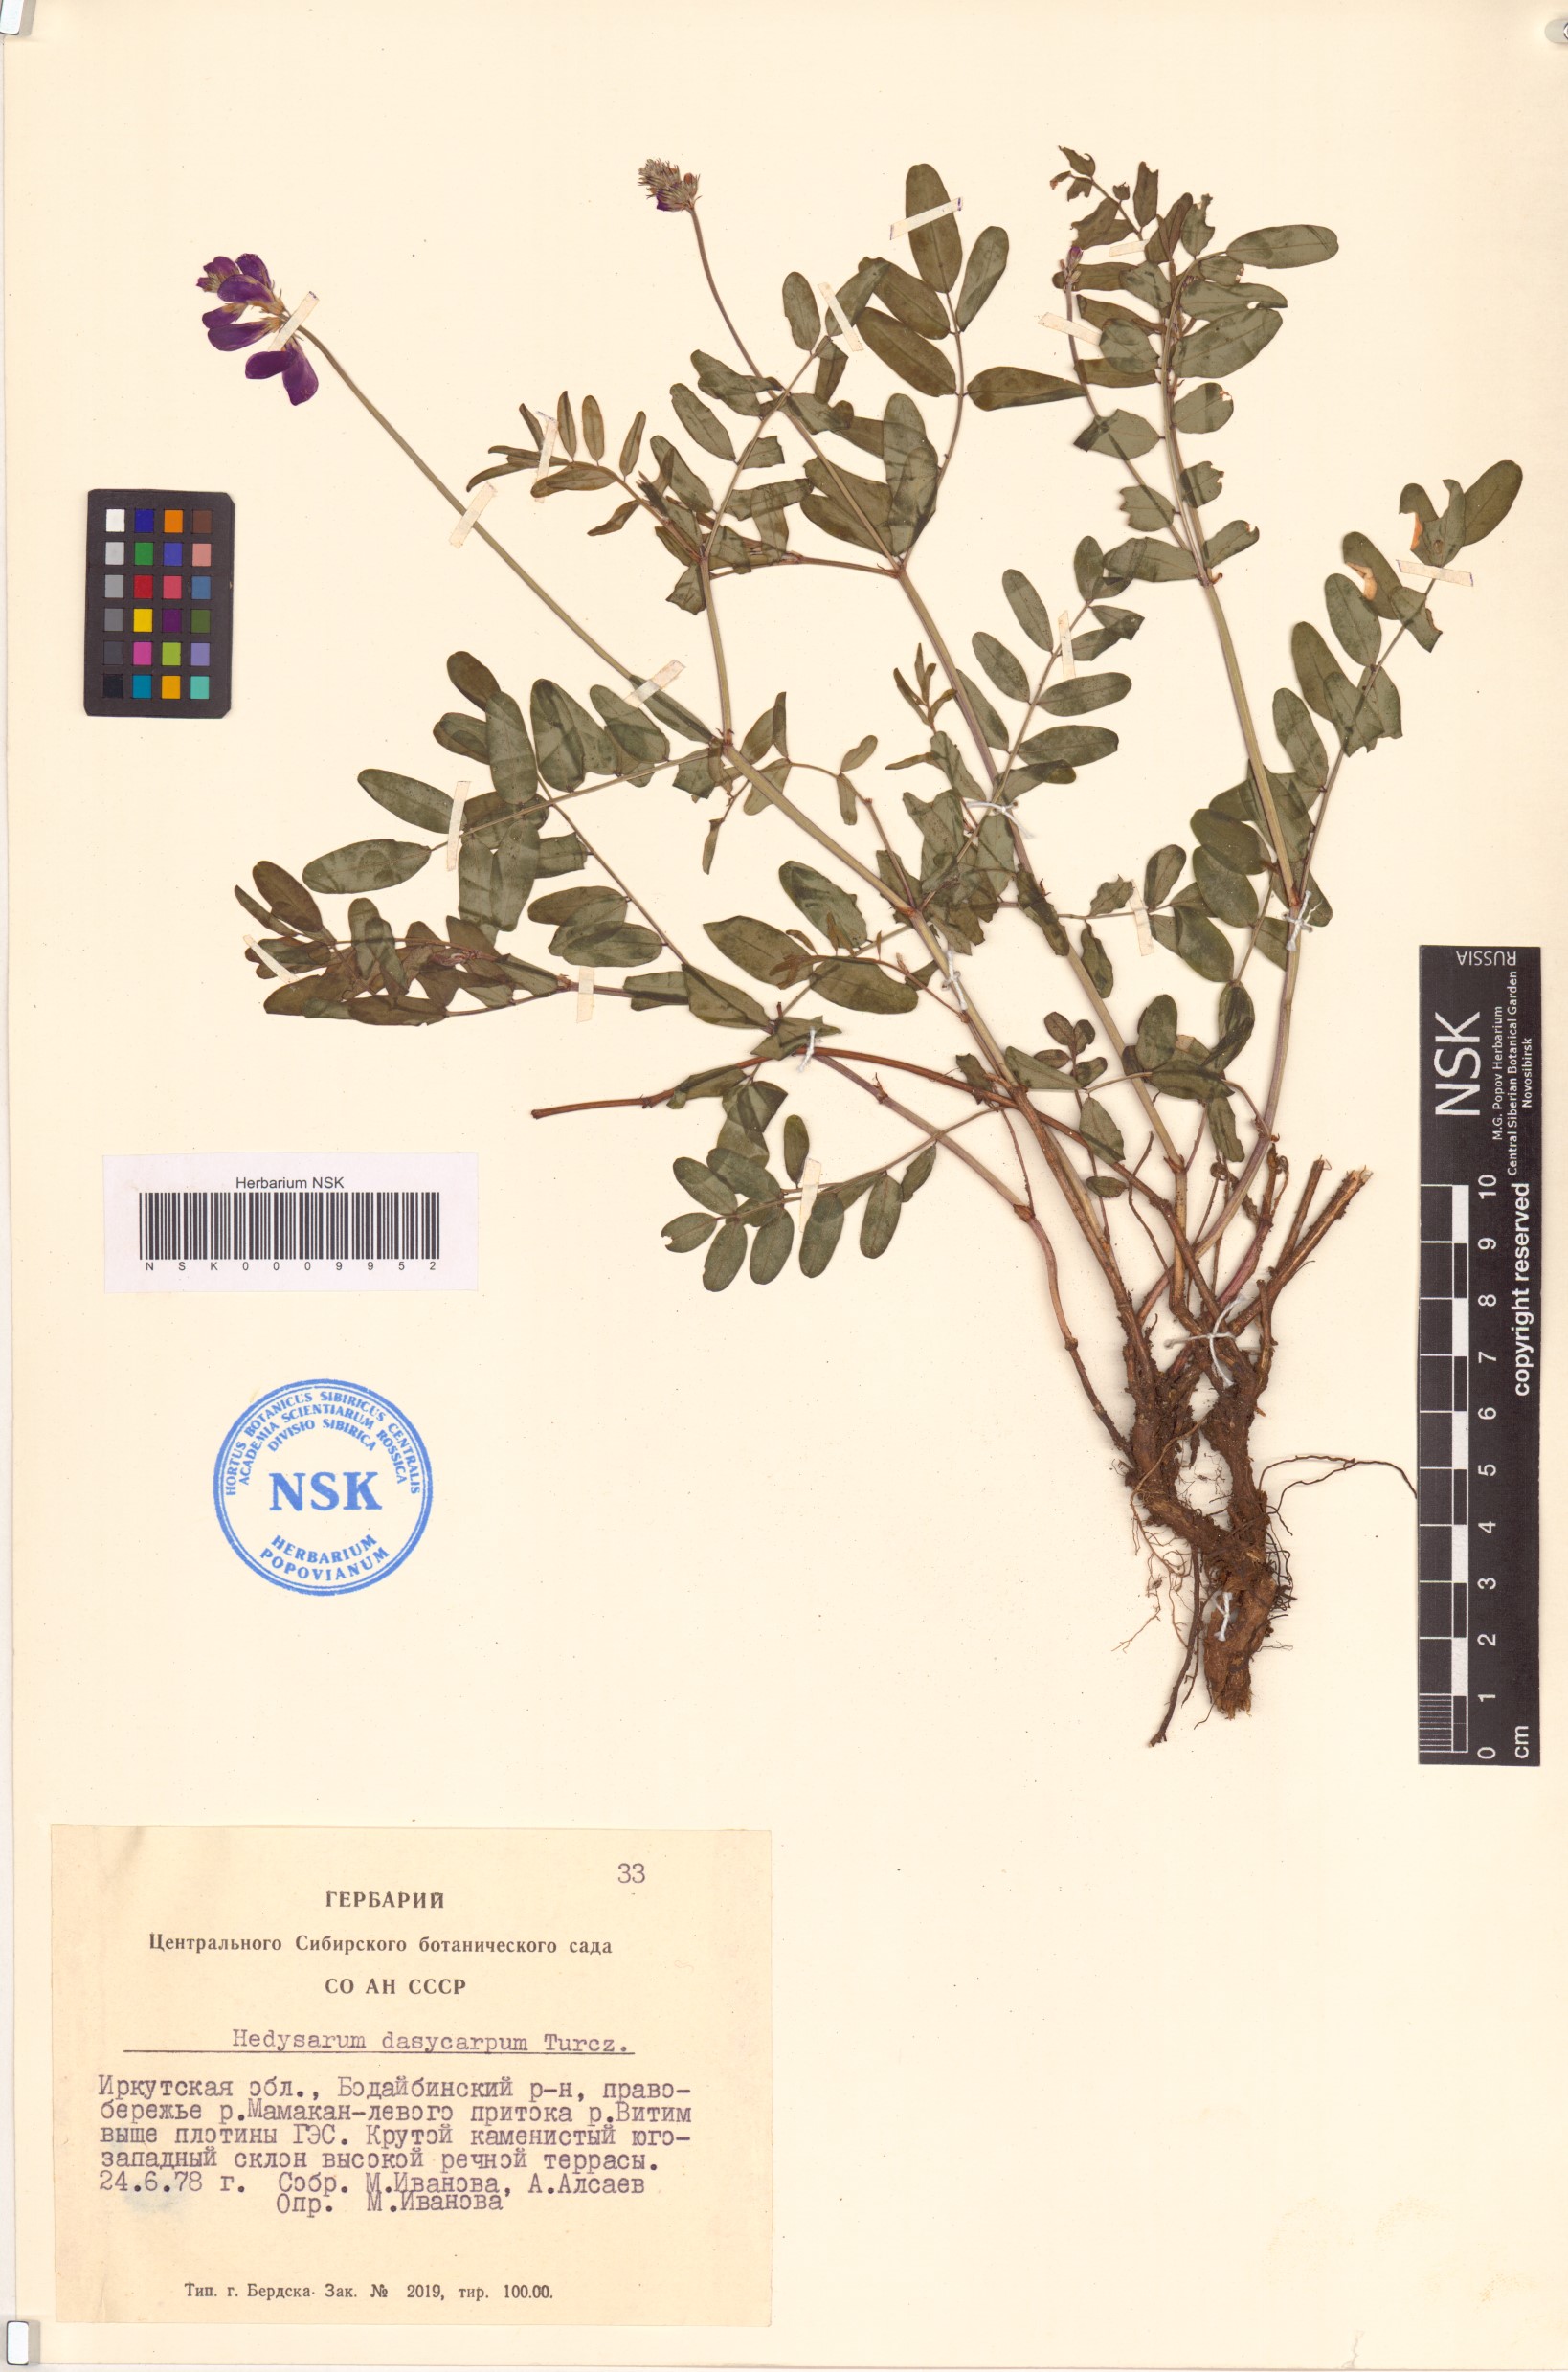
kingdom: Plantae
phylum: Tracheophyta
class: Magnoliopsida
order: Fabales
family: Fabaceae
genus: Hedysarum
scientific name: Hedysarum dasycarpum
